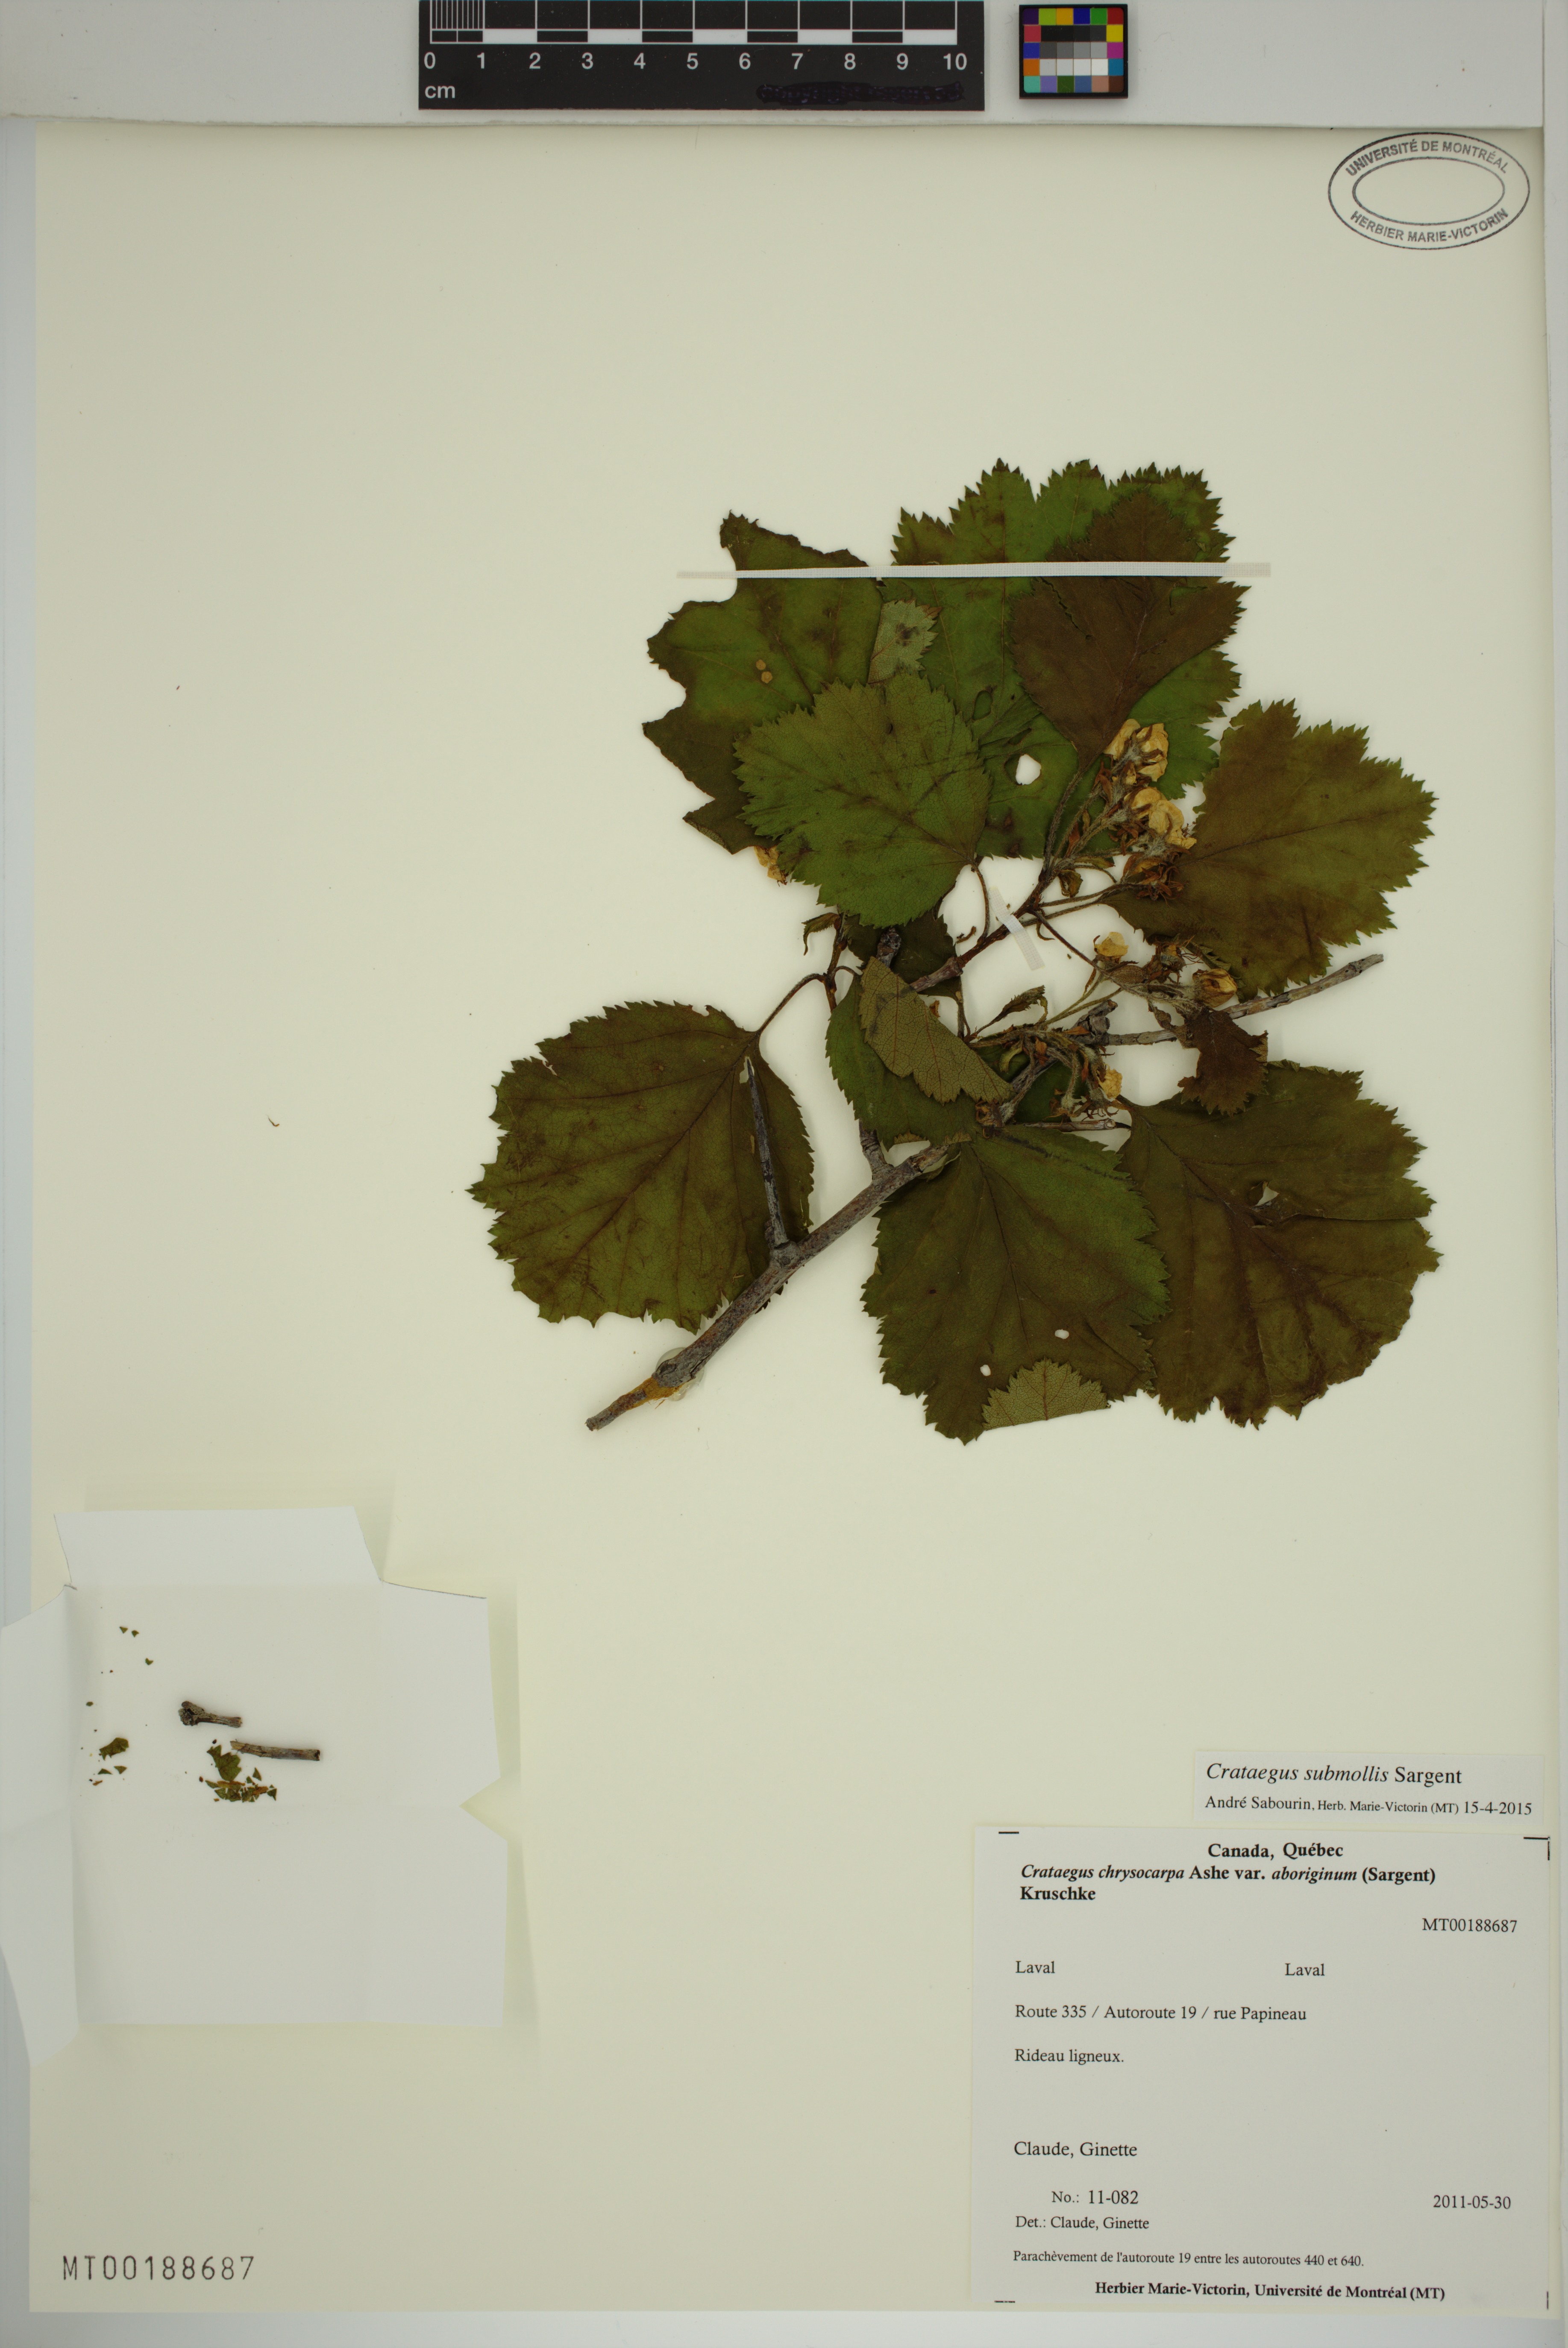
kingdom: Plantae
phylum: Tracheophyta
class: Magnoliopsida
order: Rosales
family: Rosaceae
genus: Crataegus
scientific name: Crataegus submollis
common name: Hairy cockspurthorn
